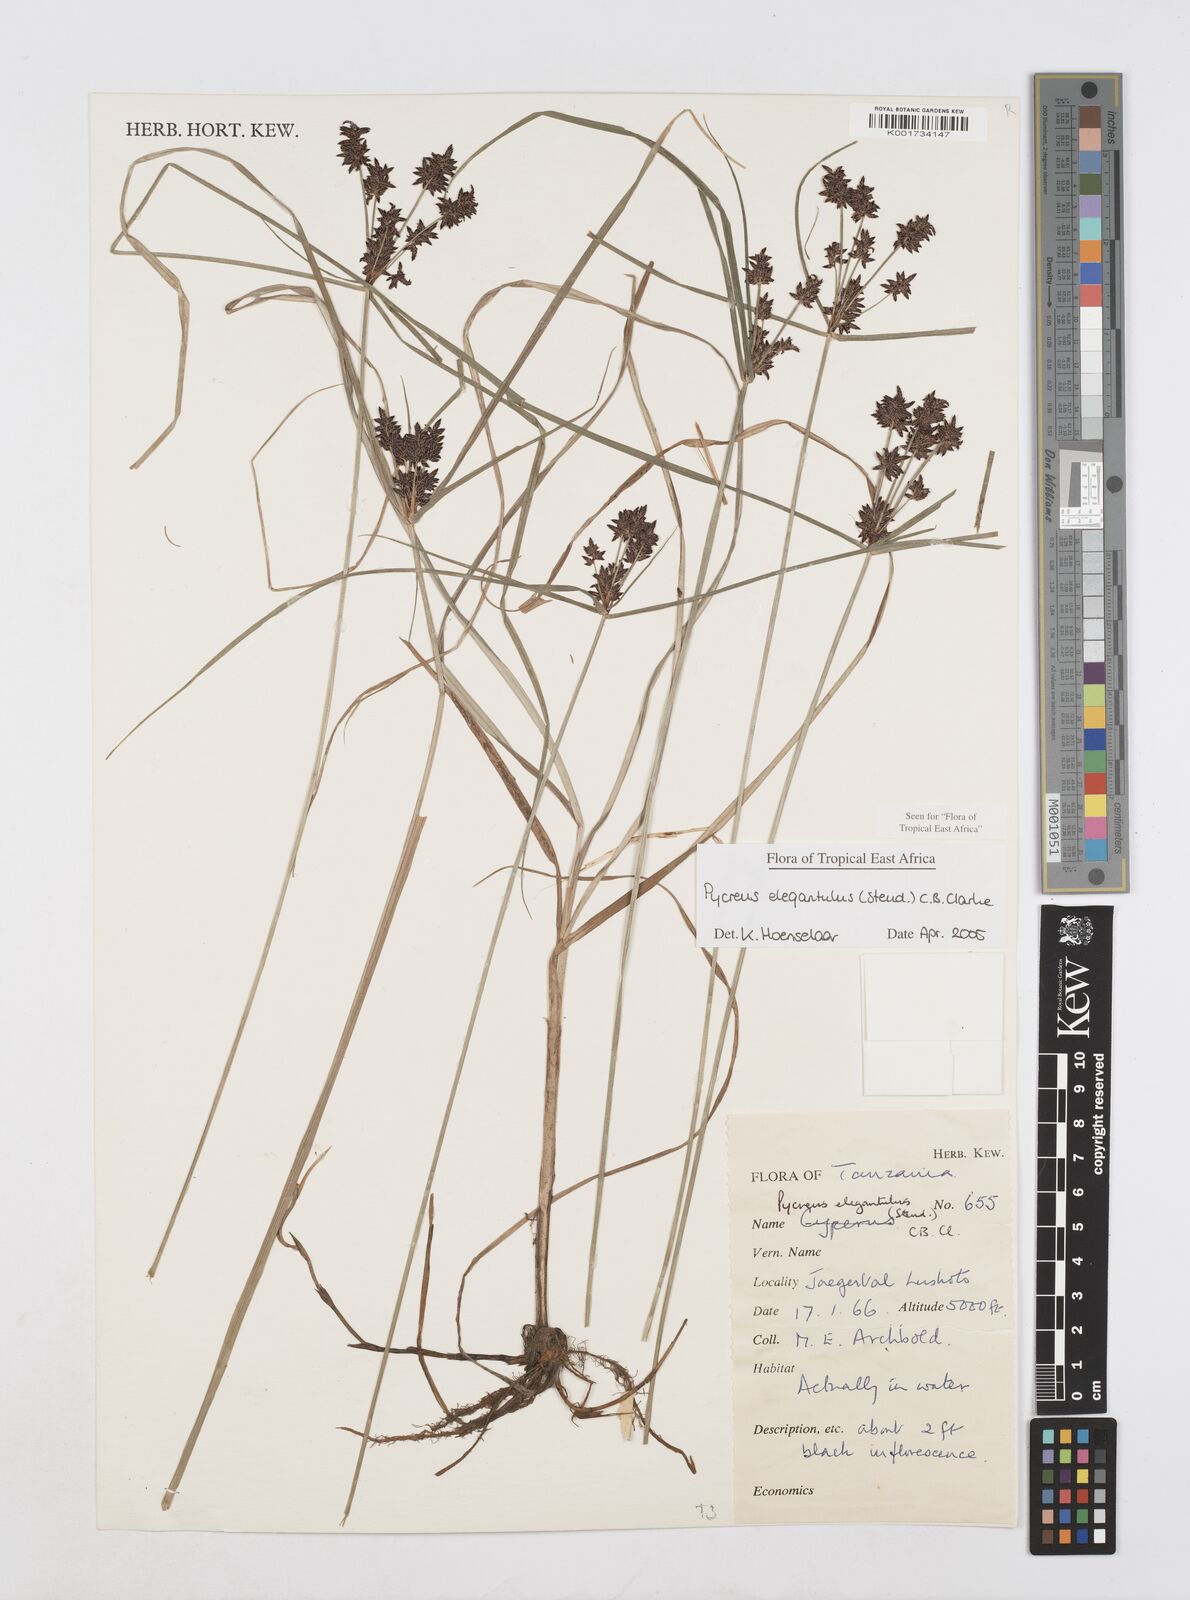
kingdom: Plantae
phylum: Tracheophyta
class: Liliopsida
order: Poales
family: Cyperaceae
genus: Cyperus
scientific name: Cyperus elegantulus
